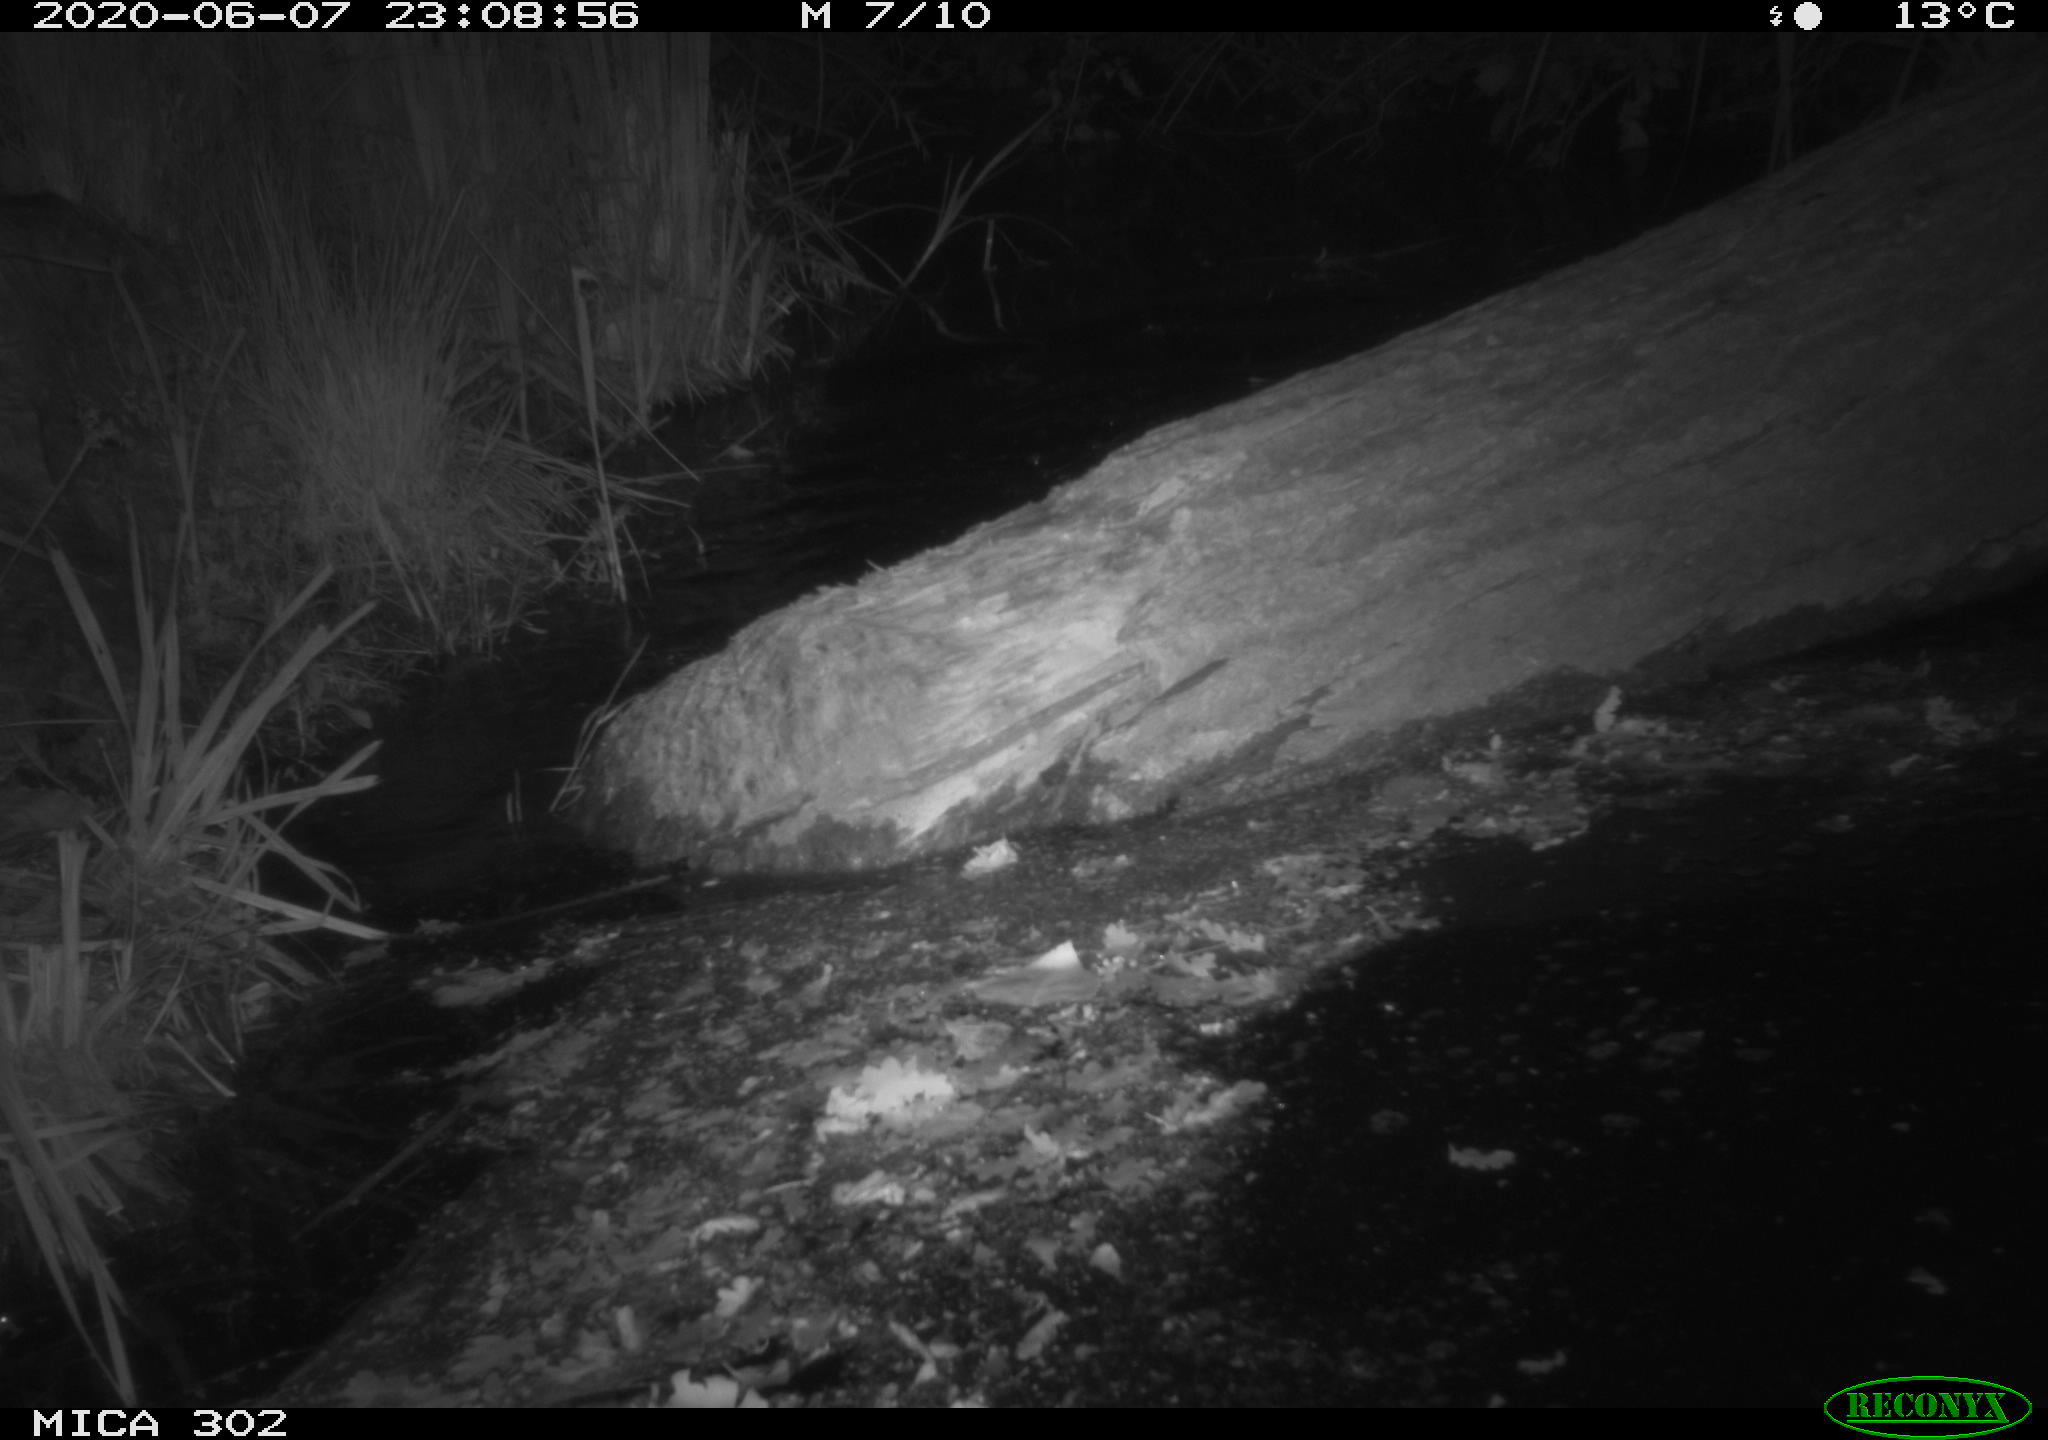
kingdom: Animalia
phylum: Chordata
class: Mammalia
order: Rodentia
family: Castoridae
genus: Castor
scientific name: Castor fiber
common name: Eurasian beaver
